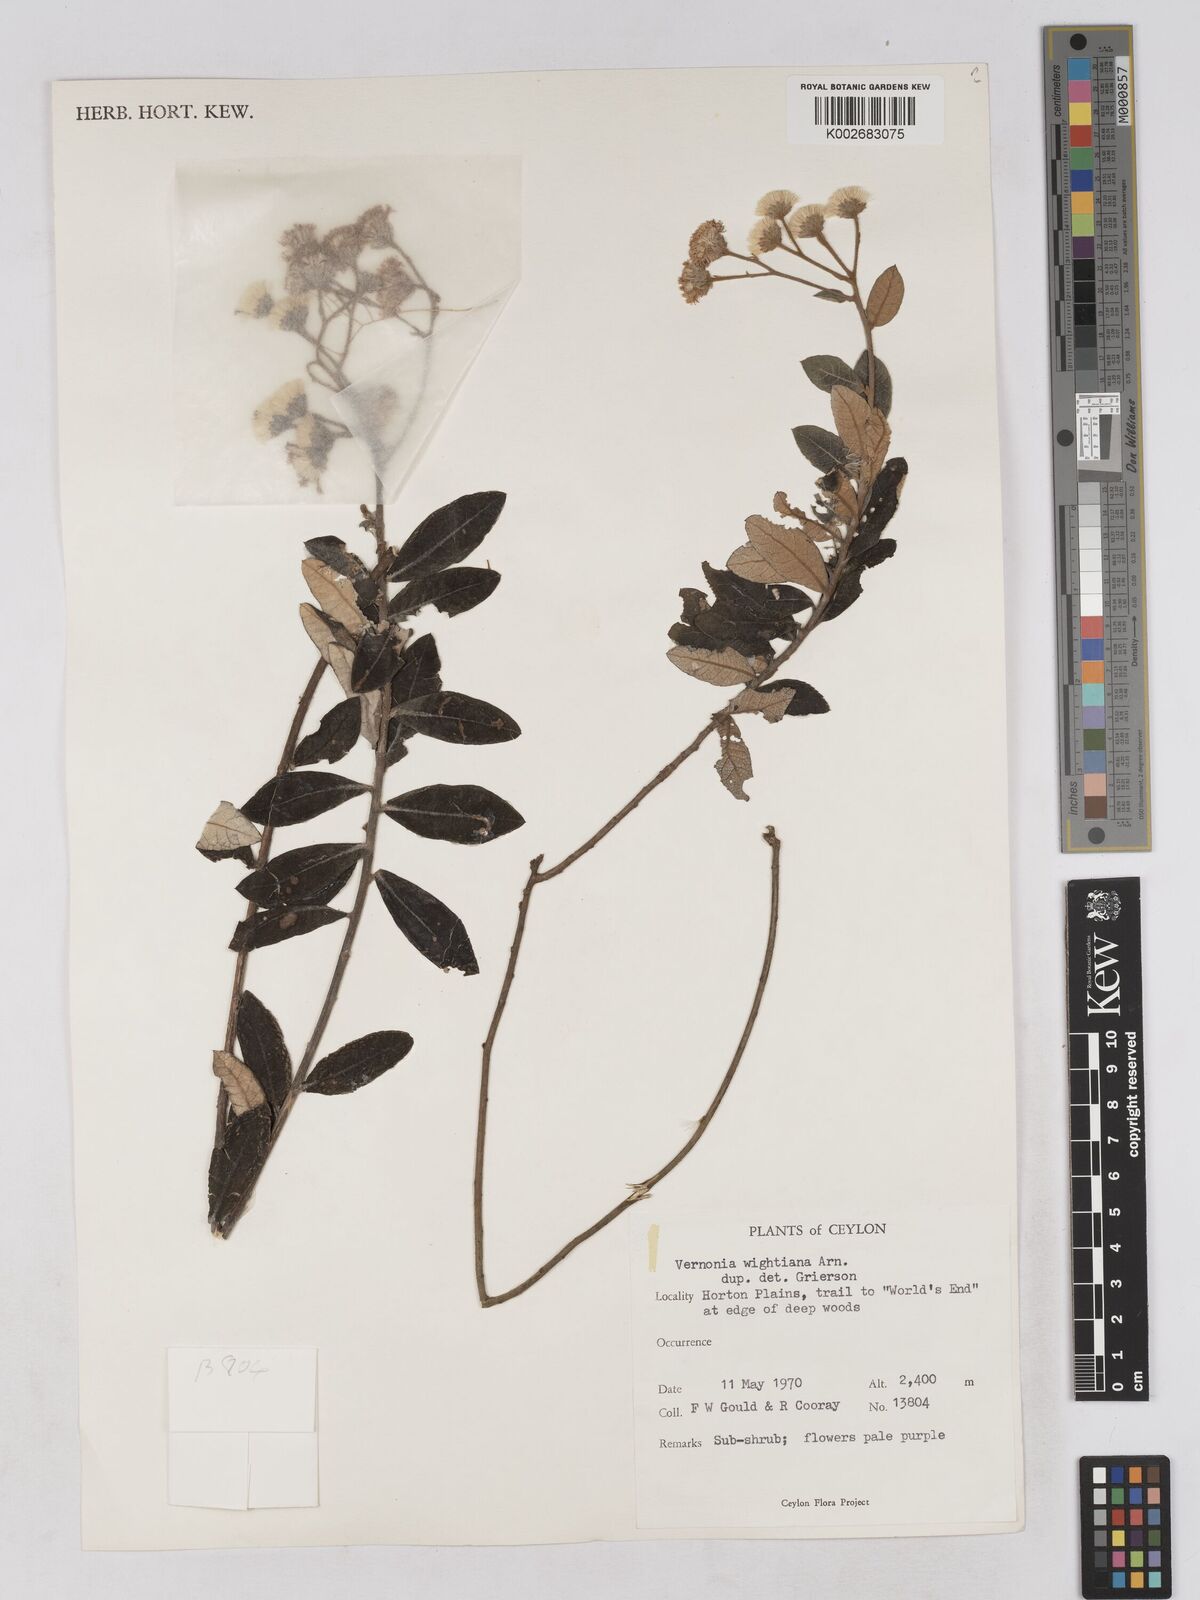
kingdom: Plantae
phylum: Tracheophyta
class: Magnoliopsida
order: Asterales
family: Asteraceae
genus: Uniyala
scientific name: Uniyala wightiana
